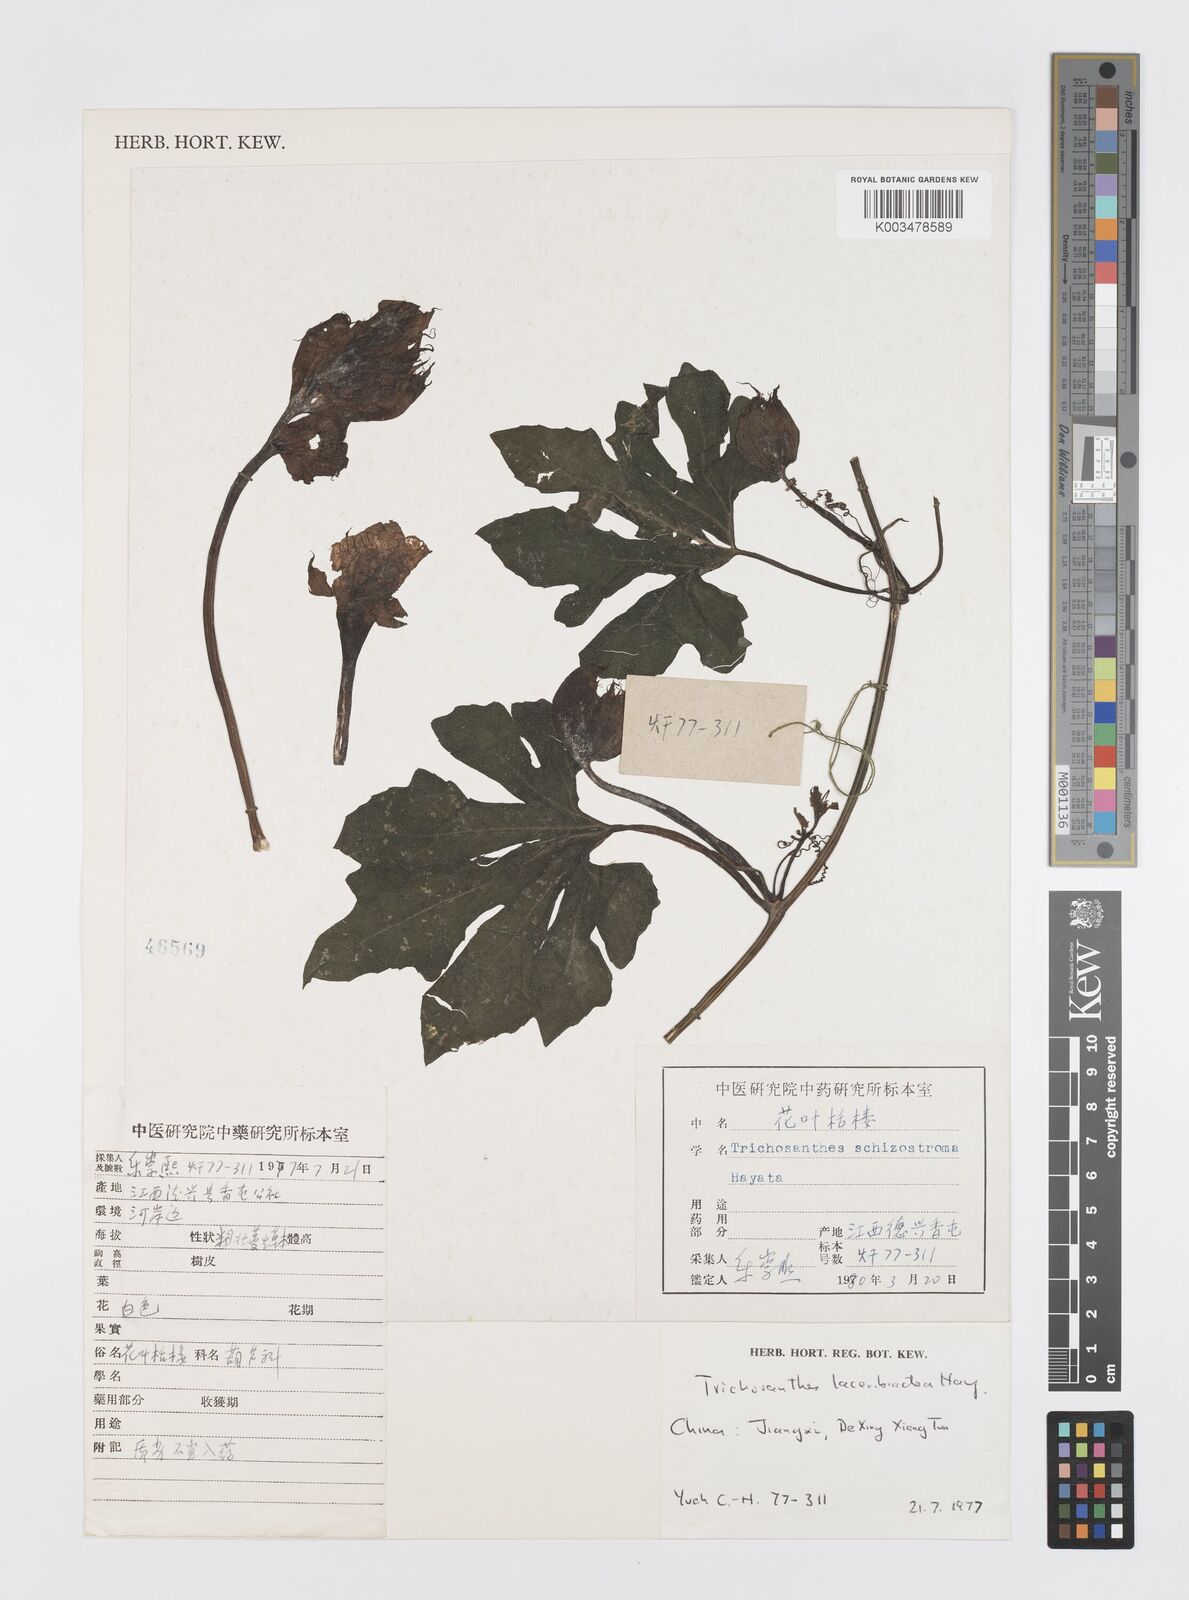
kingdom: Plantae
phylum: Tracheophyta
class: Magnoliopsida
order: Cucurbitales
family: Cucurbitaceae
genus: Trichosanthes
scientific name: Trichosanthes laceribractea
